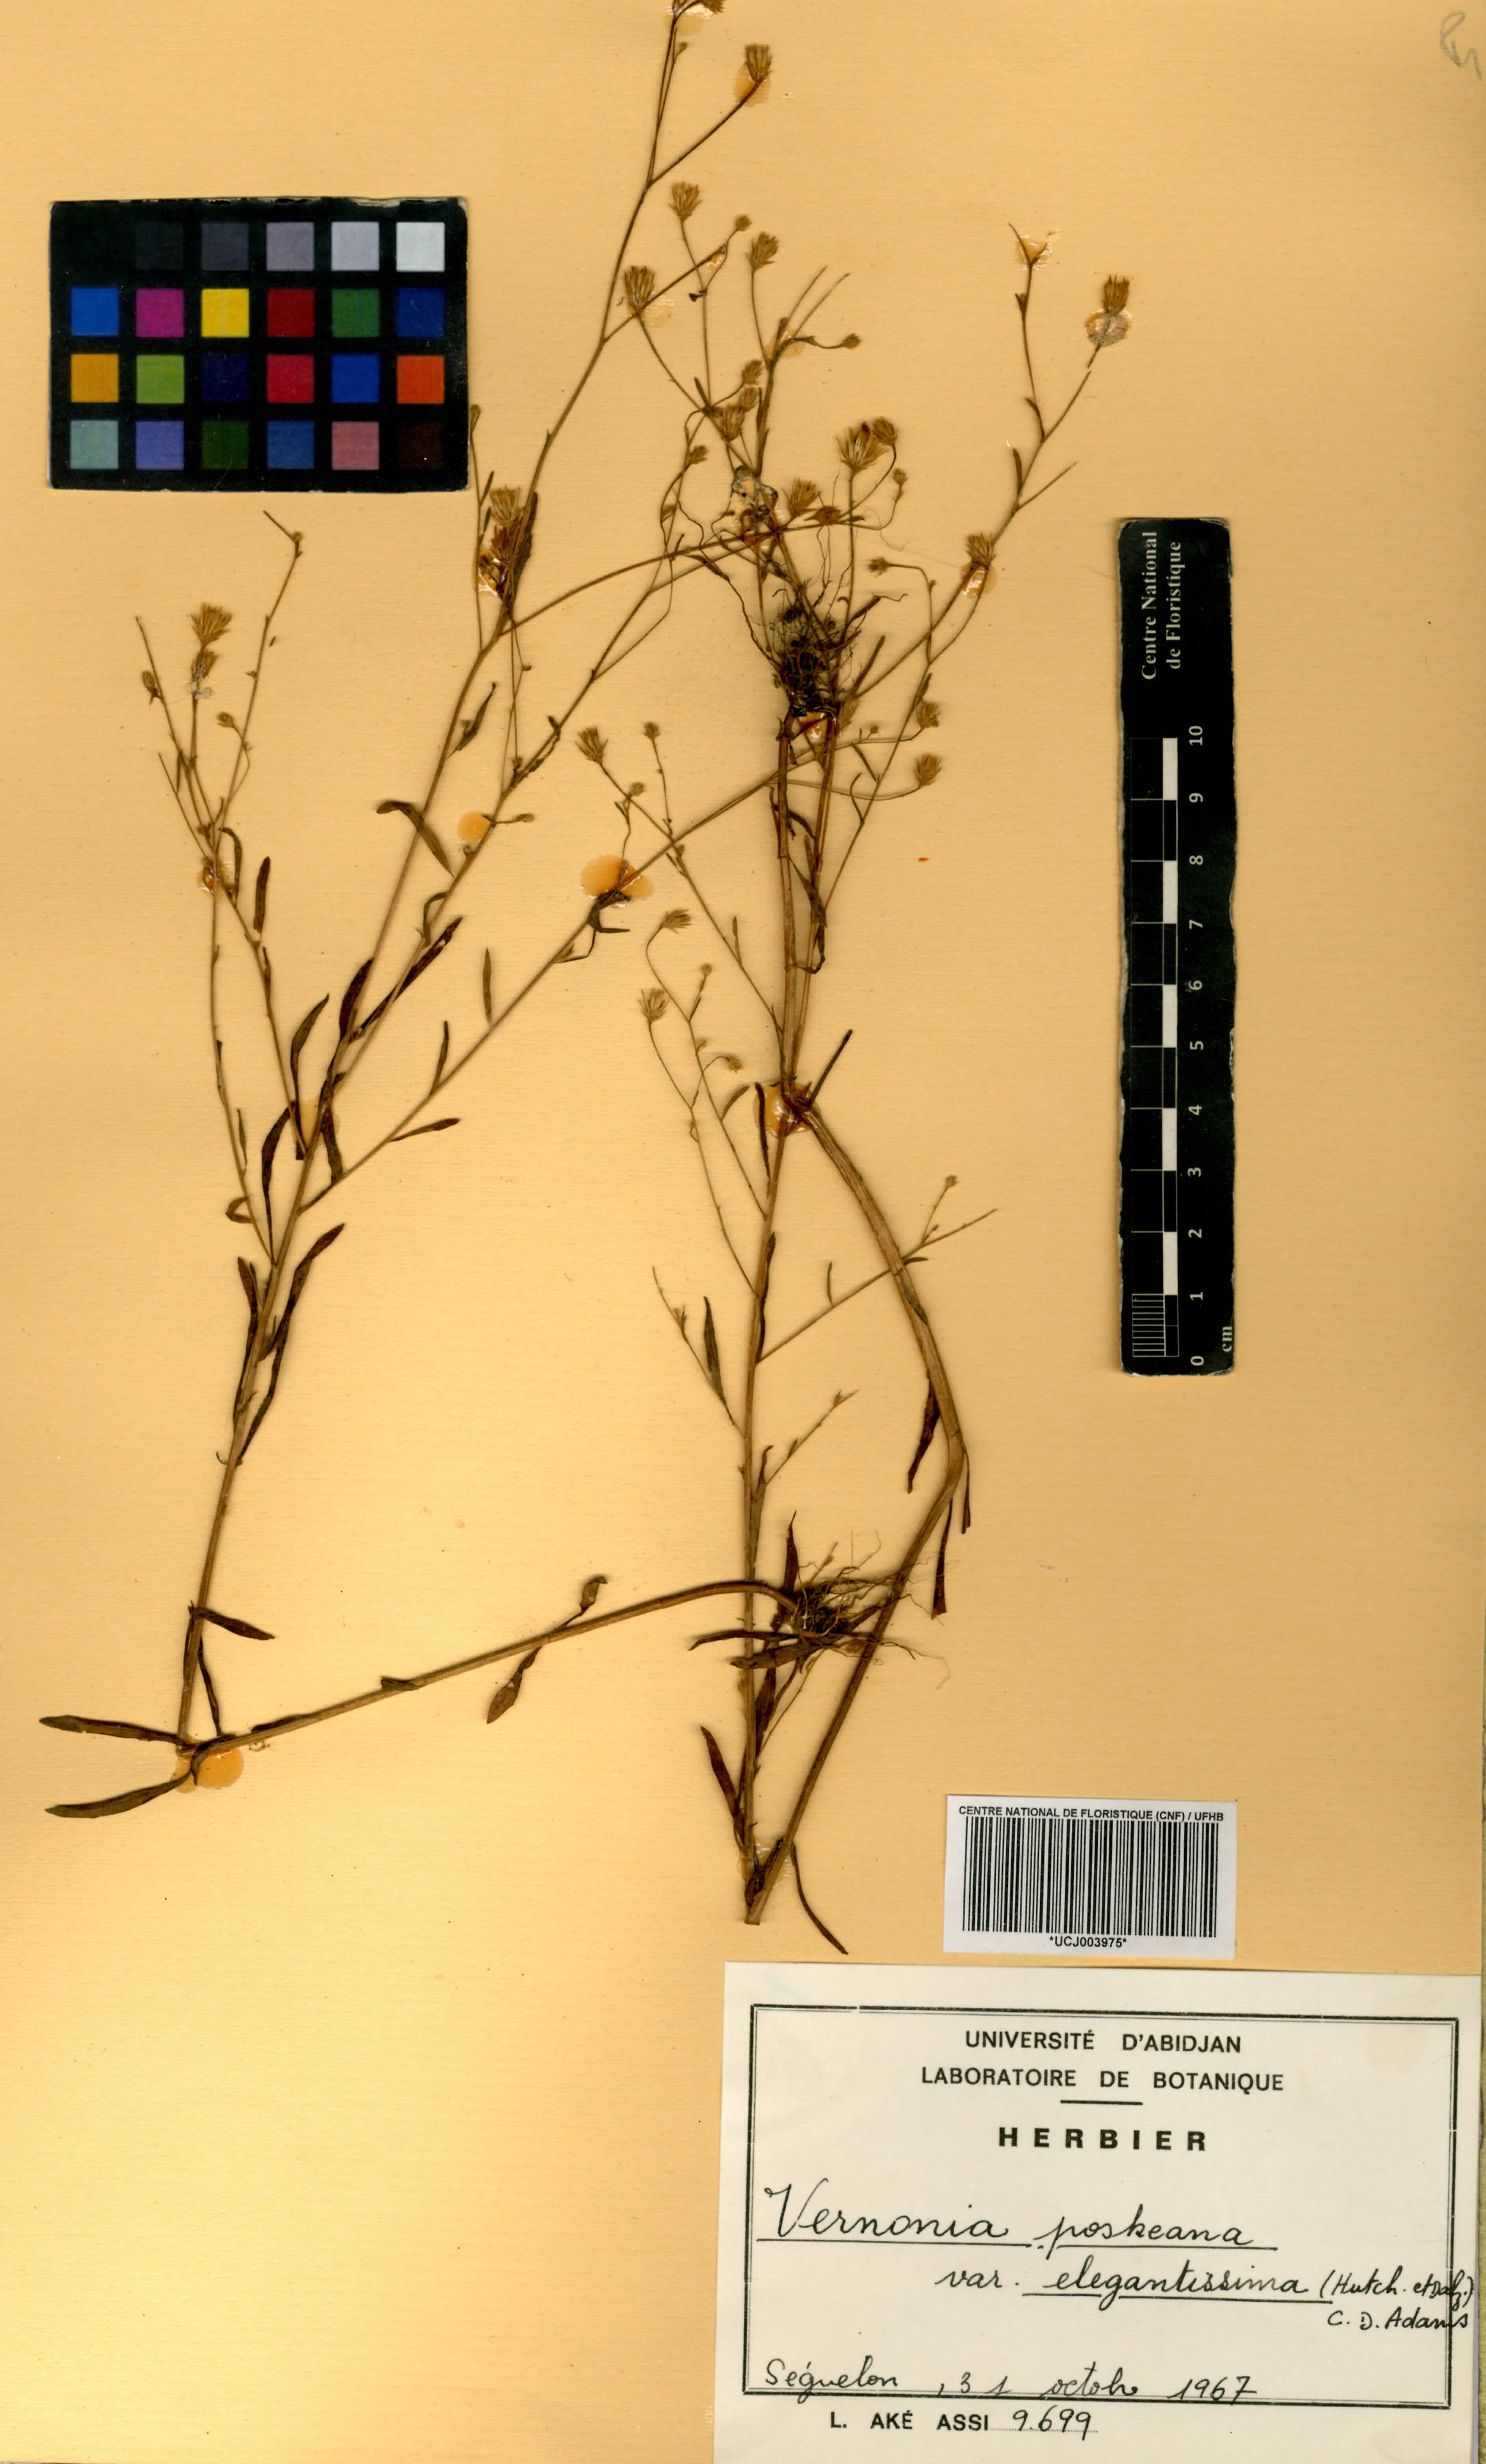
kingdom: Plantae
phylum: Tracheophyta
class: Magnoliopsida
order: Asterales
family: Asteraceae
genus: Crystallopollen
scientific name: Crystallopollen angustifolium
